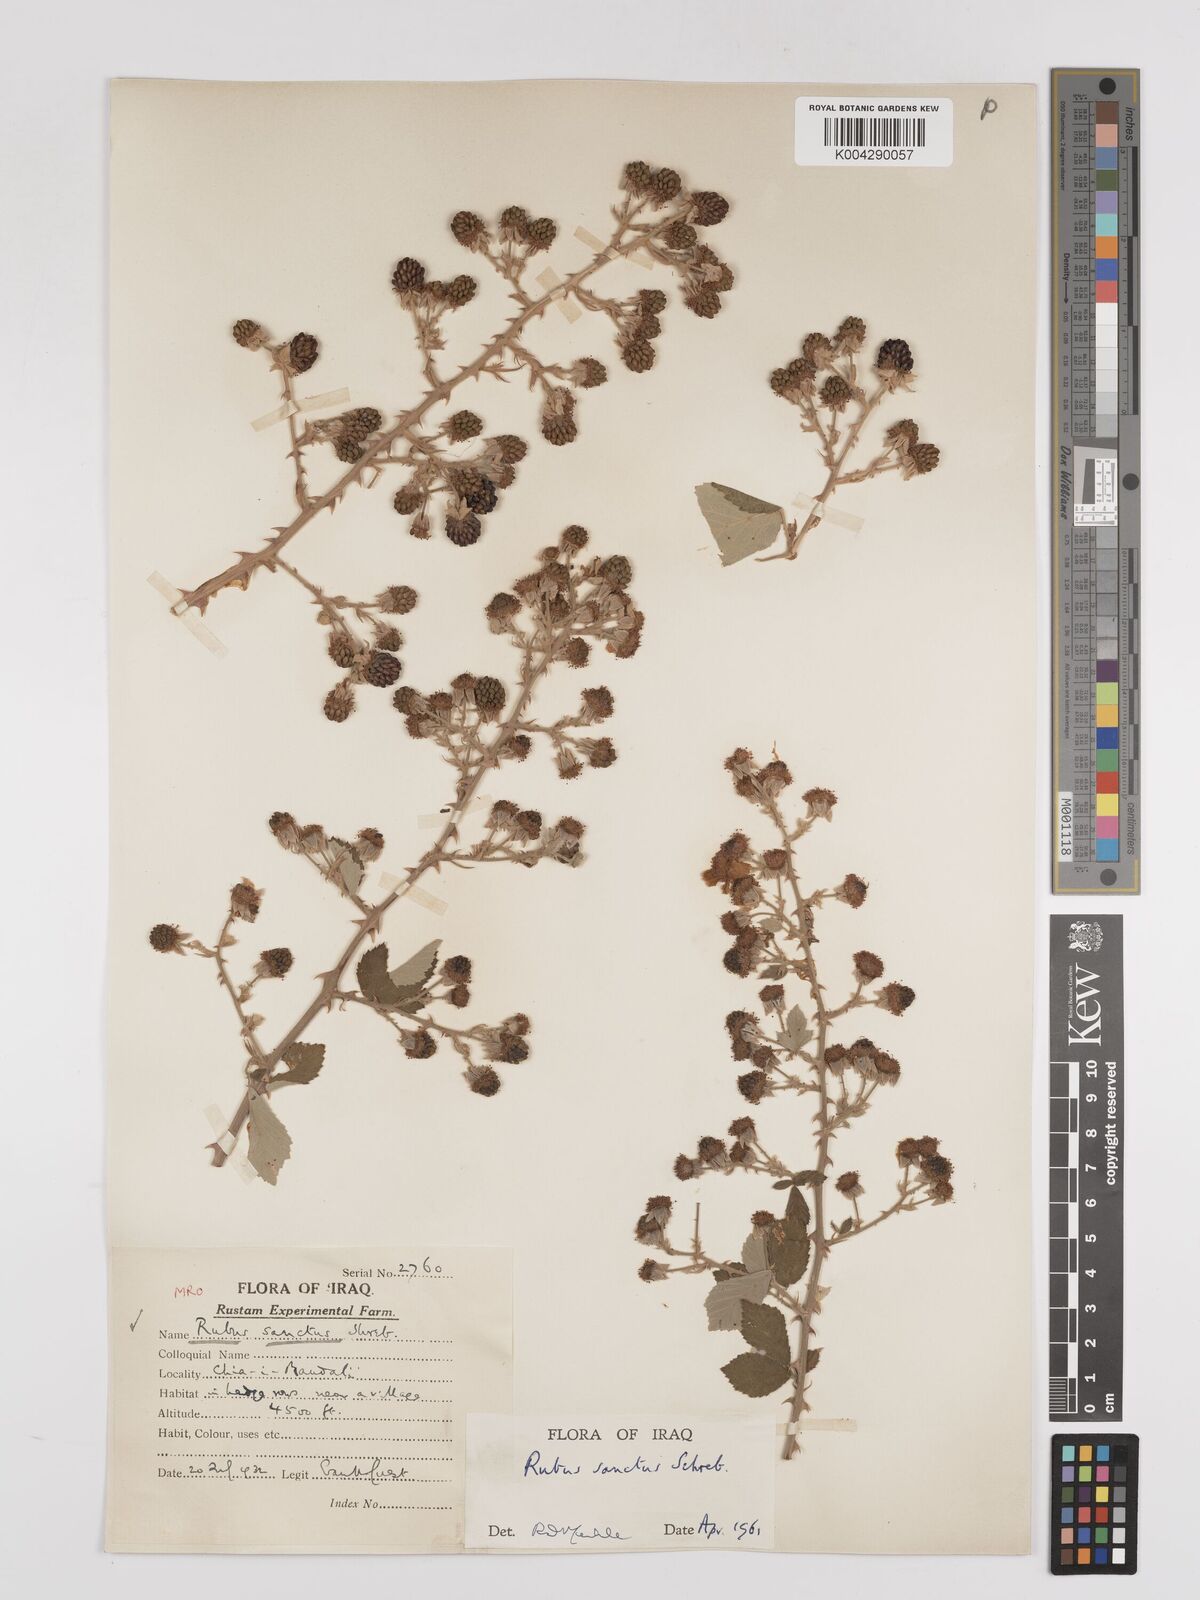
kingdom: Plantae
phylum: Tracheophyta
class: Magnoliopsida
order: Rosales
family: Rosaceae
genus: Rubus
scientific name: Rubus sanctus
